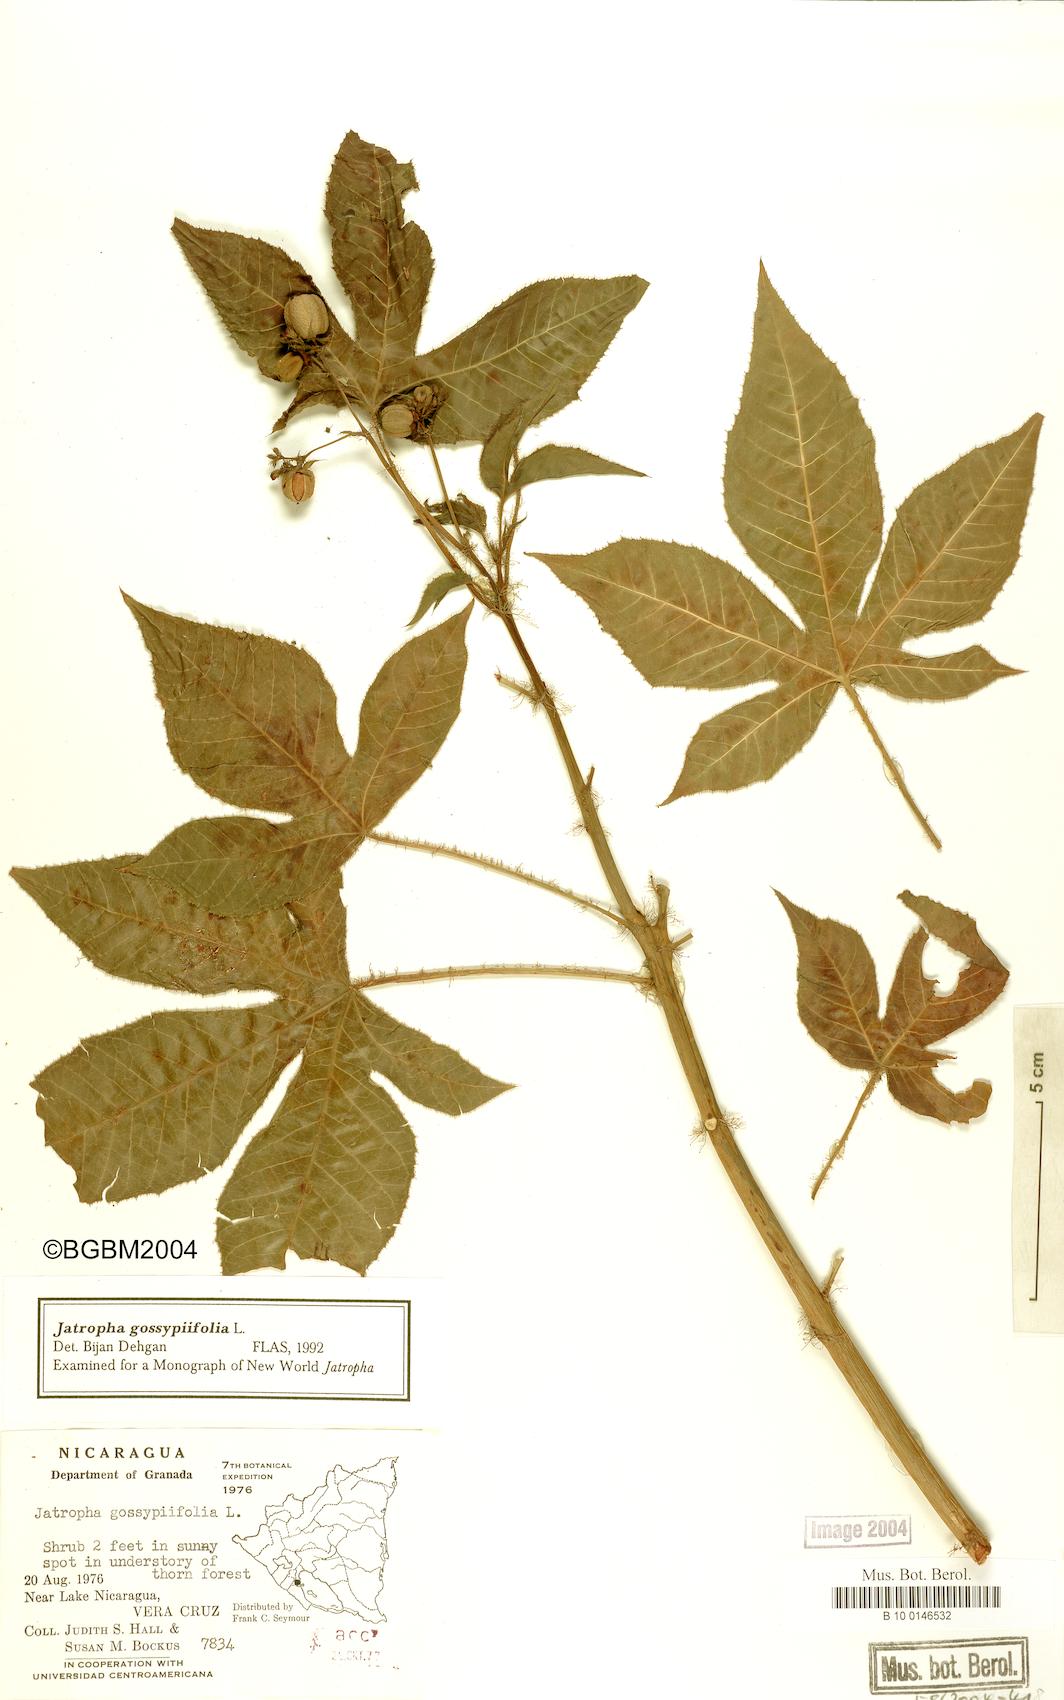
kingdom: Plantae
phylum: Tracheophyta
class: Magnoliopsida
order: Malpighiales
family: Euphorbiaceae
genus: Jatropha
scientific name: Jatropha gossypiifolia
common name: Bellyache bush
